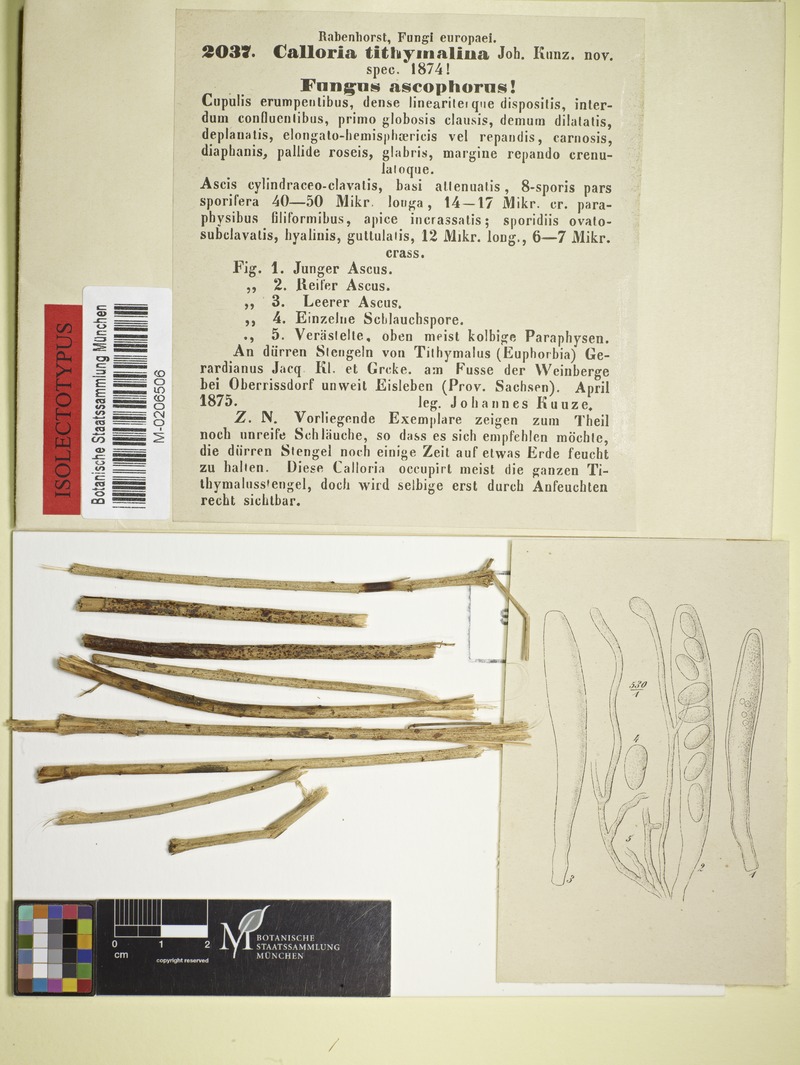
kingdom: Fungi
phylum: Ascomycota
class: Leotiomycetes
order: Helotiales
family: Calloriaceae
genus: Naeviopsis
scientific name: Naeviopsis tithymalina
